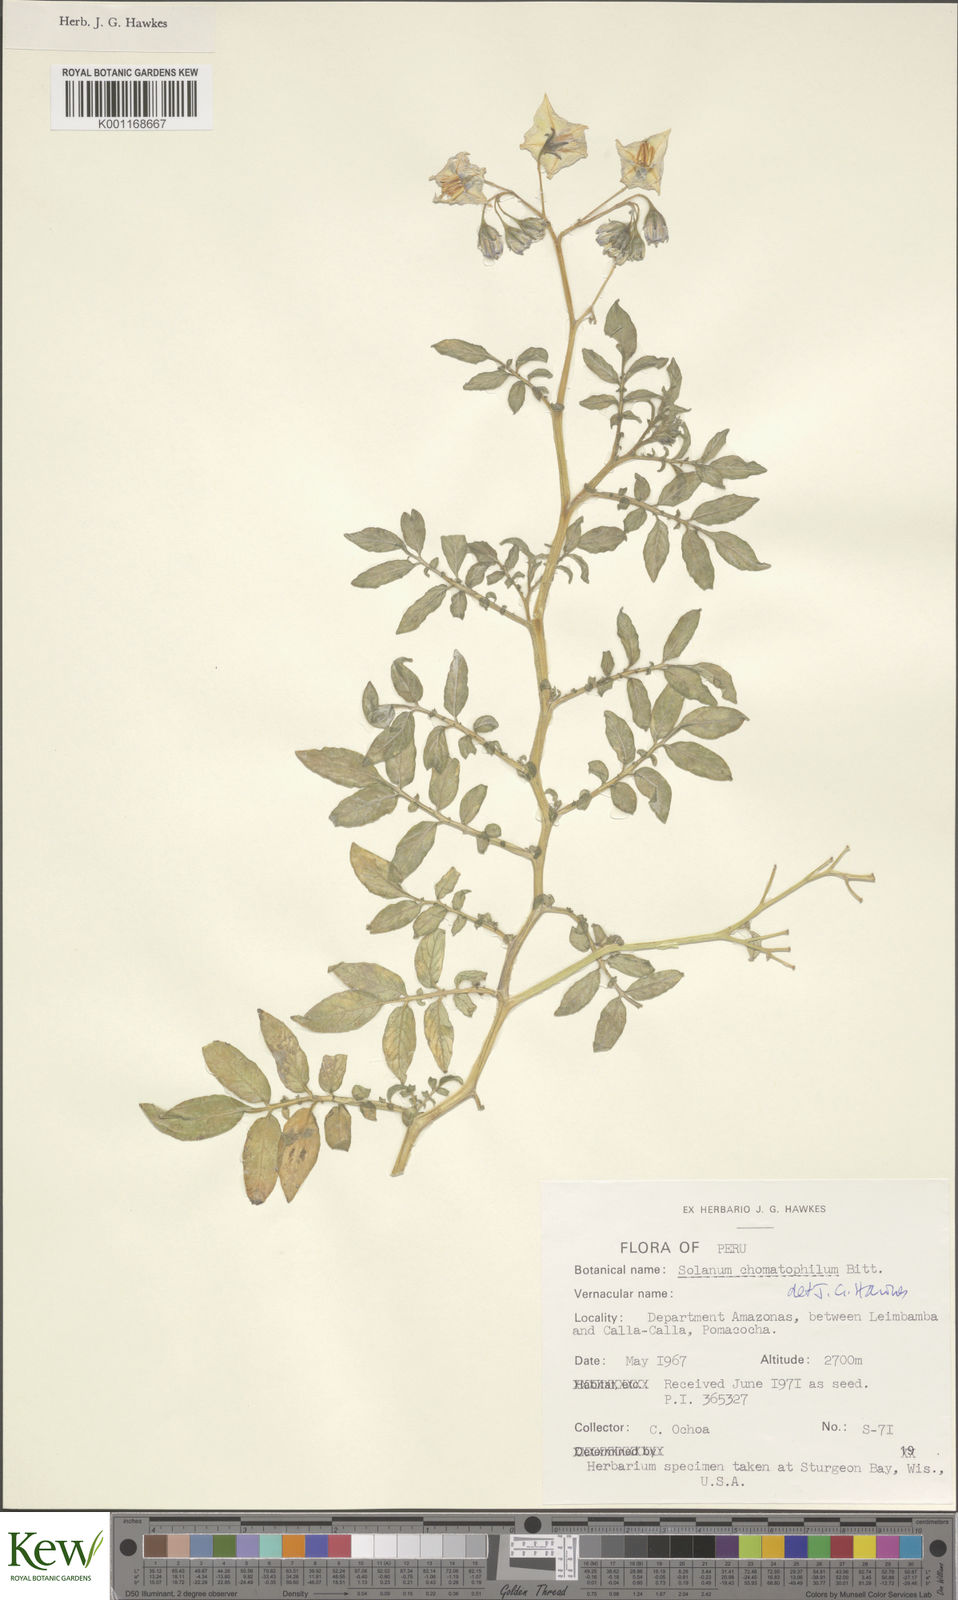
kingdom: Plantae
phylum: Tracheophyta
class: Magnoliopsida
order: Solanales
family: Solanaceae
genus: Solanum
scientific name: Solanum chomatophilum
